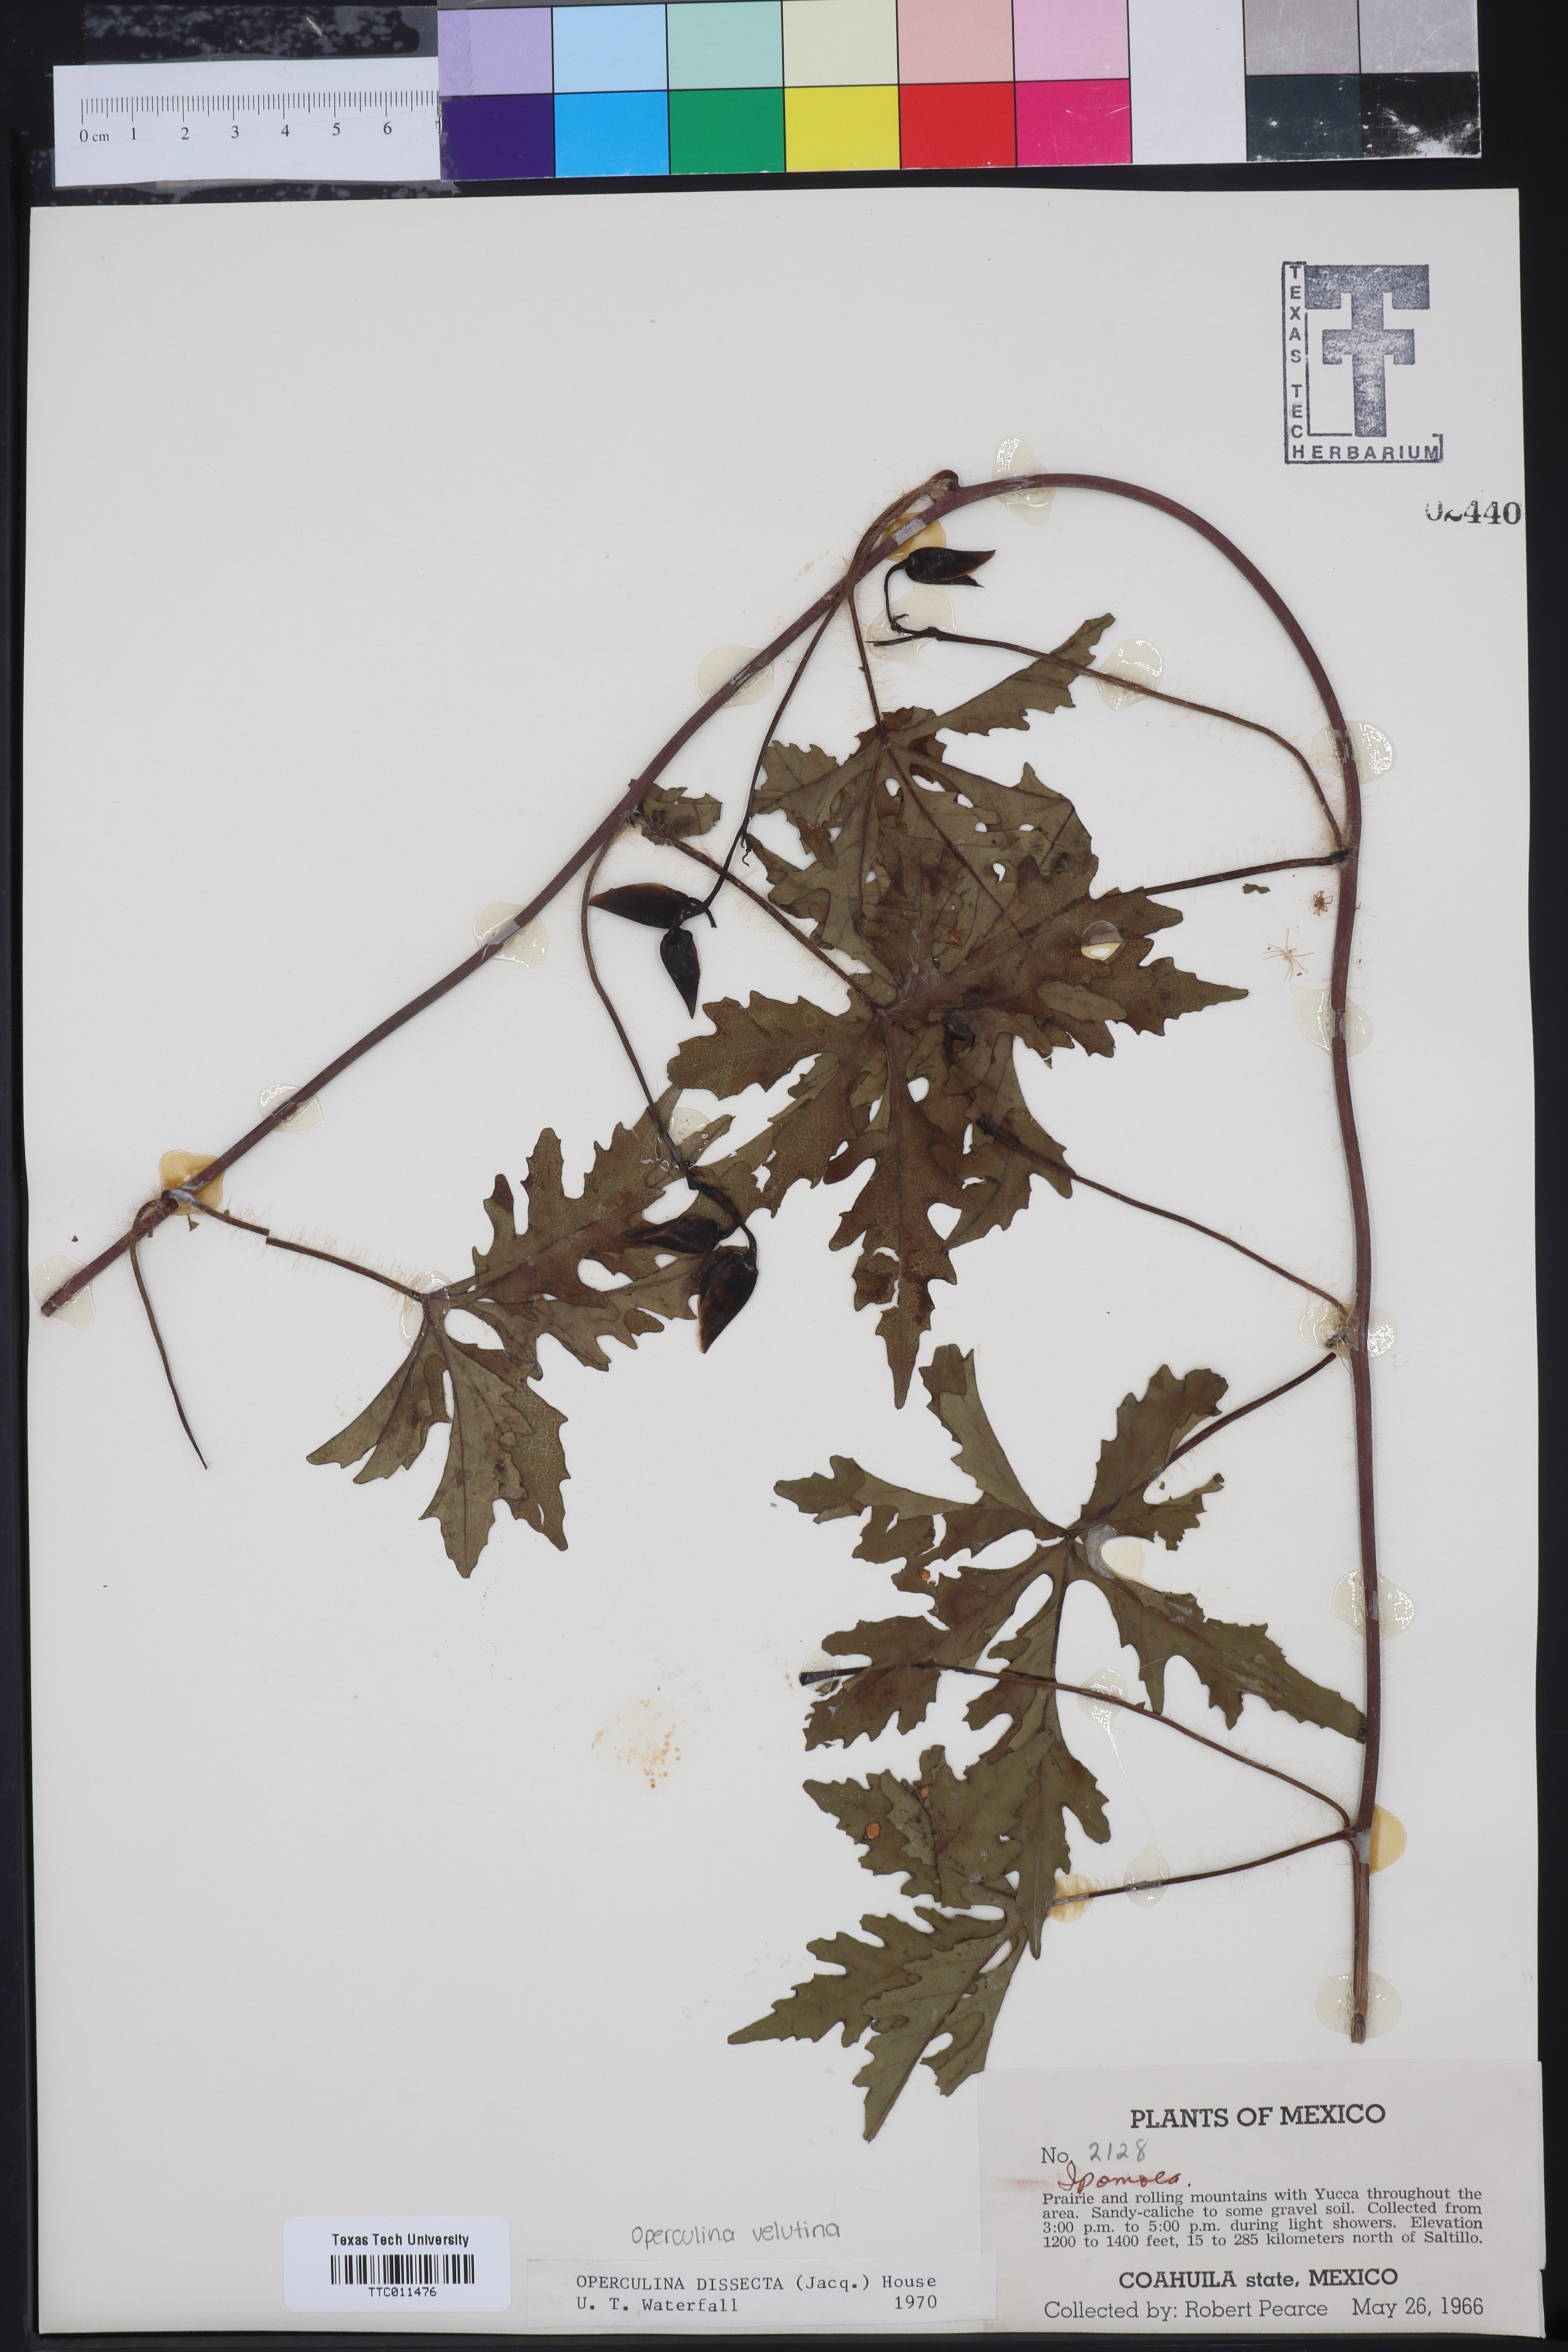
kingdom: Plantae
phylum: Tracheophyta
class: Magnoliopsida
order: Solanales
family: Convolvulaceae
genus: Distimake
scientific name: Distimake dissectus
